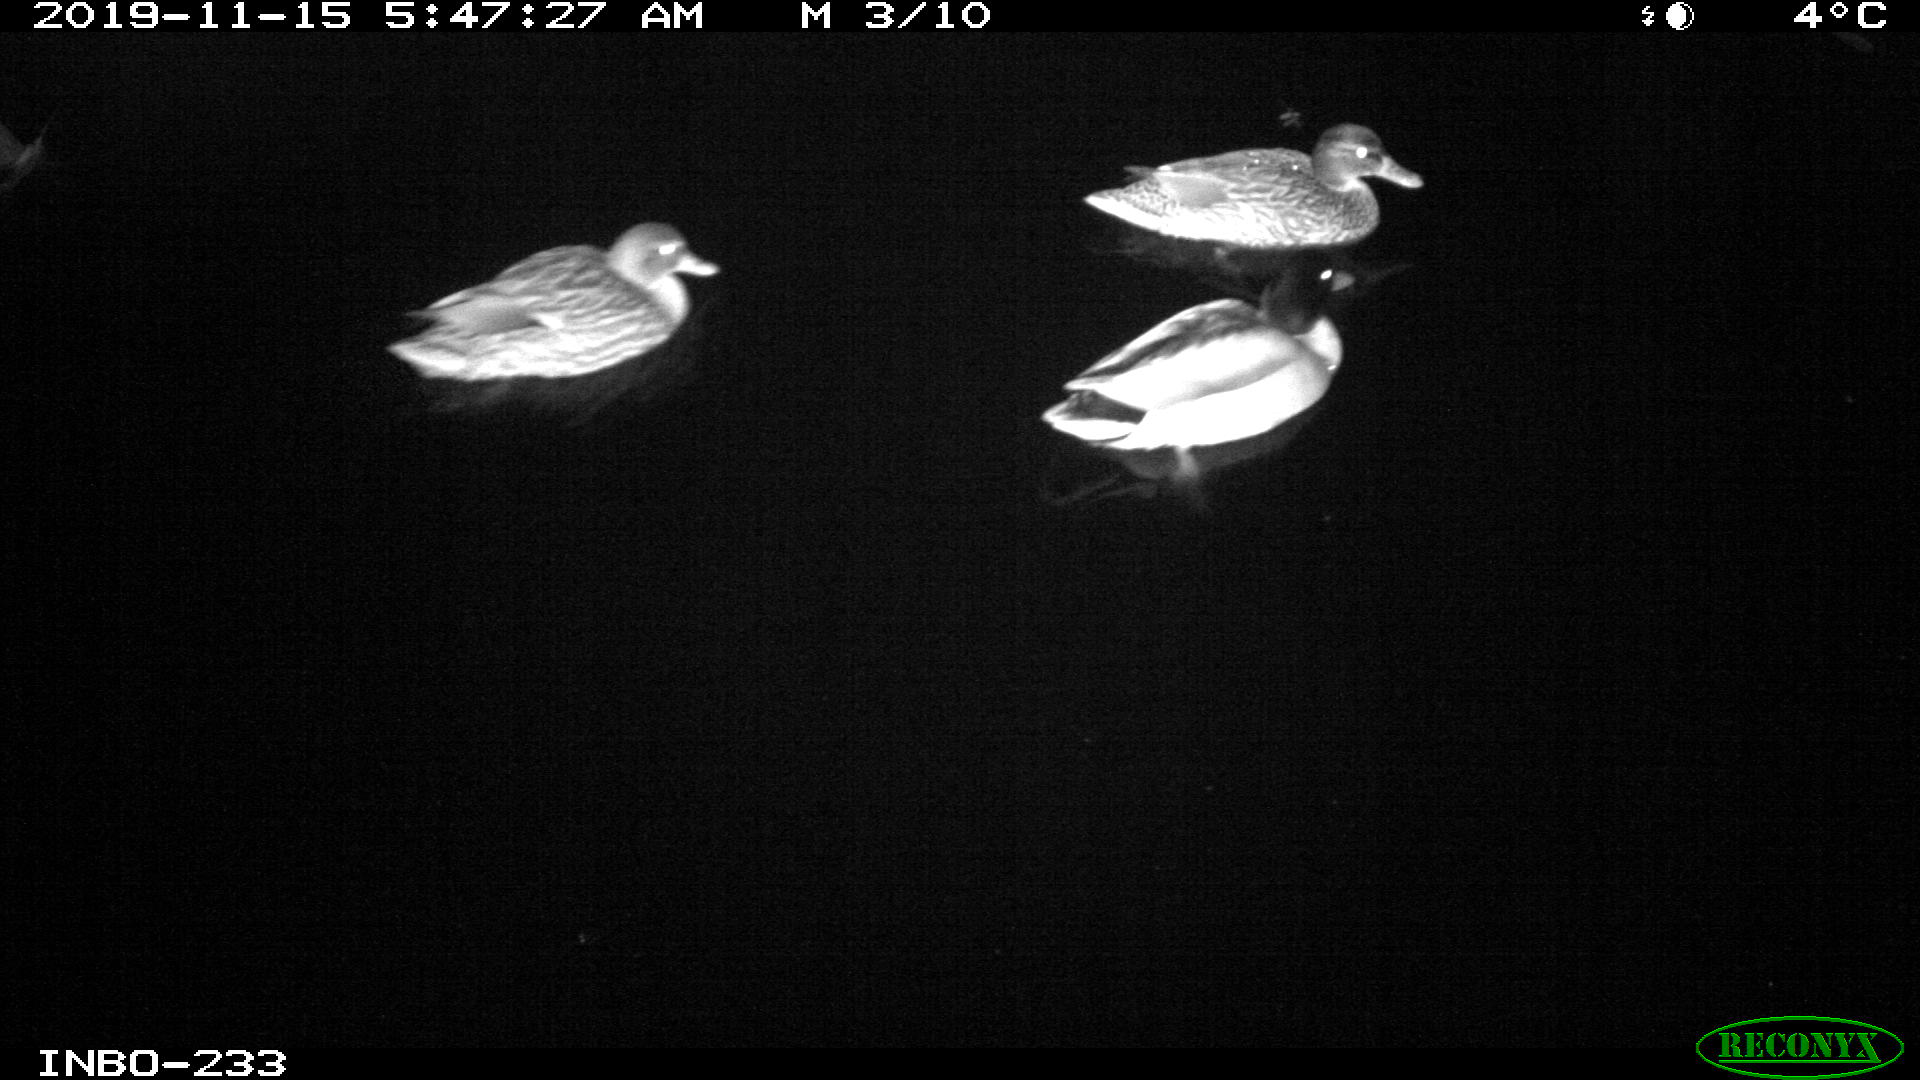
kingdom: Animalia
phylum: Chordata
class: Aves
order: Anseriformes
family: Anatidae
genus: Anas
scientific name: Anas platyrhynchos
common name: Mallard
